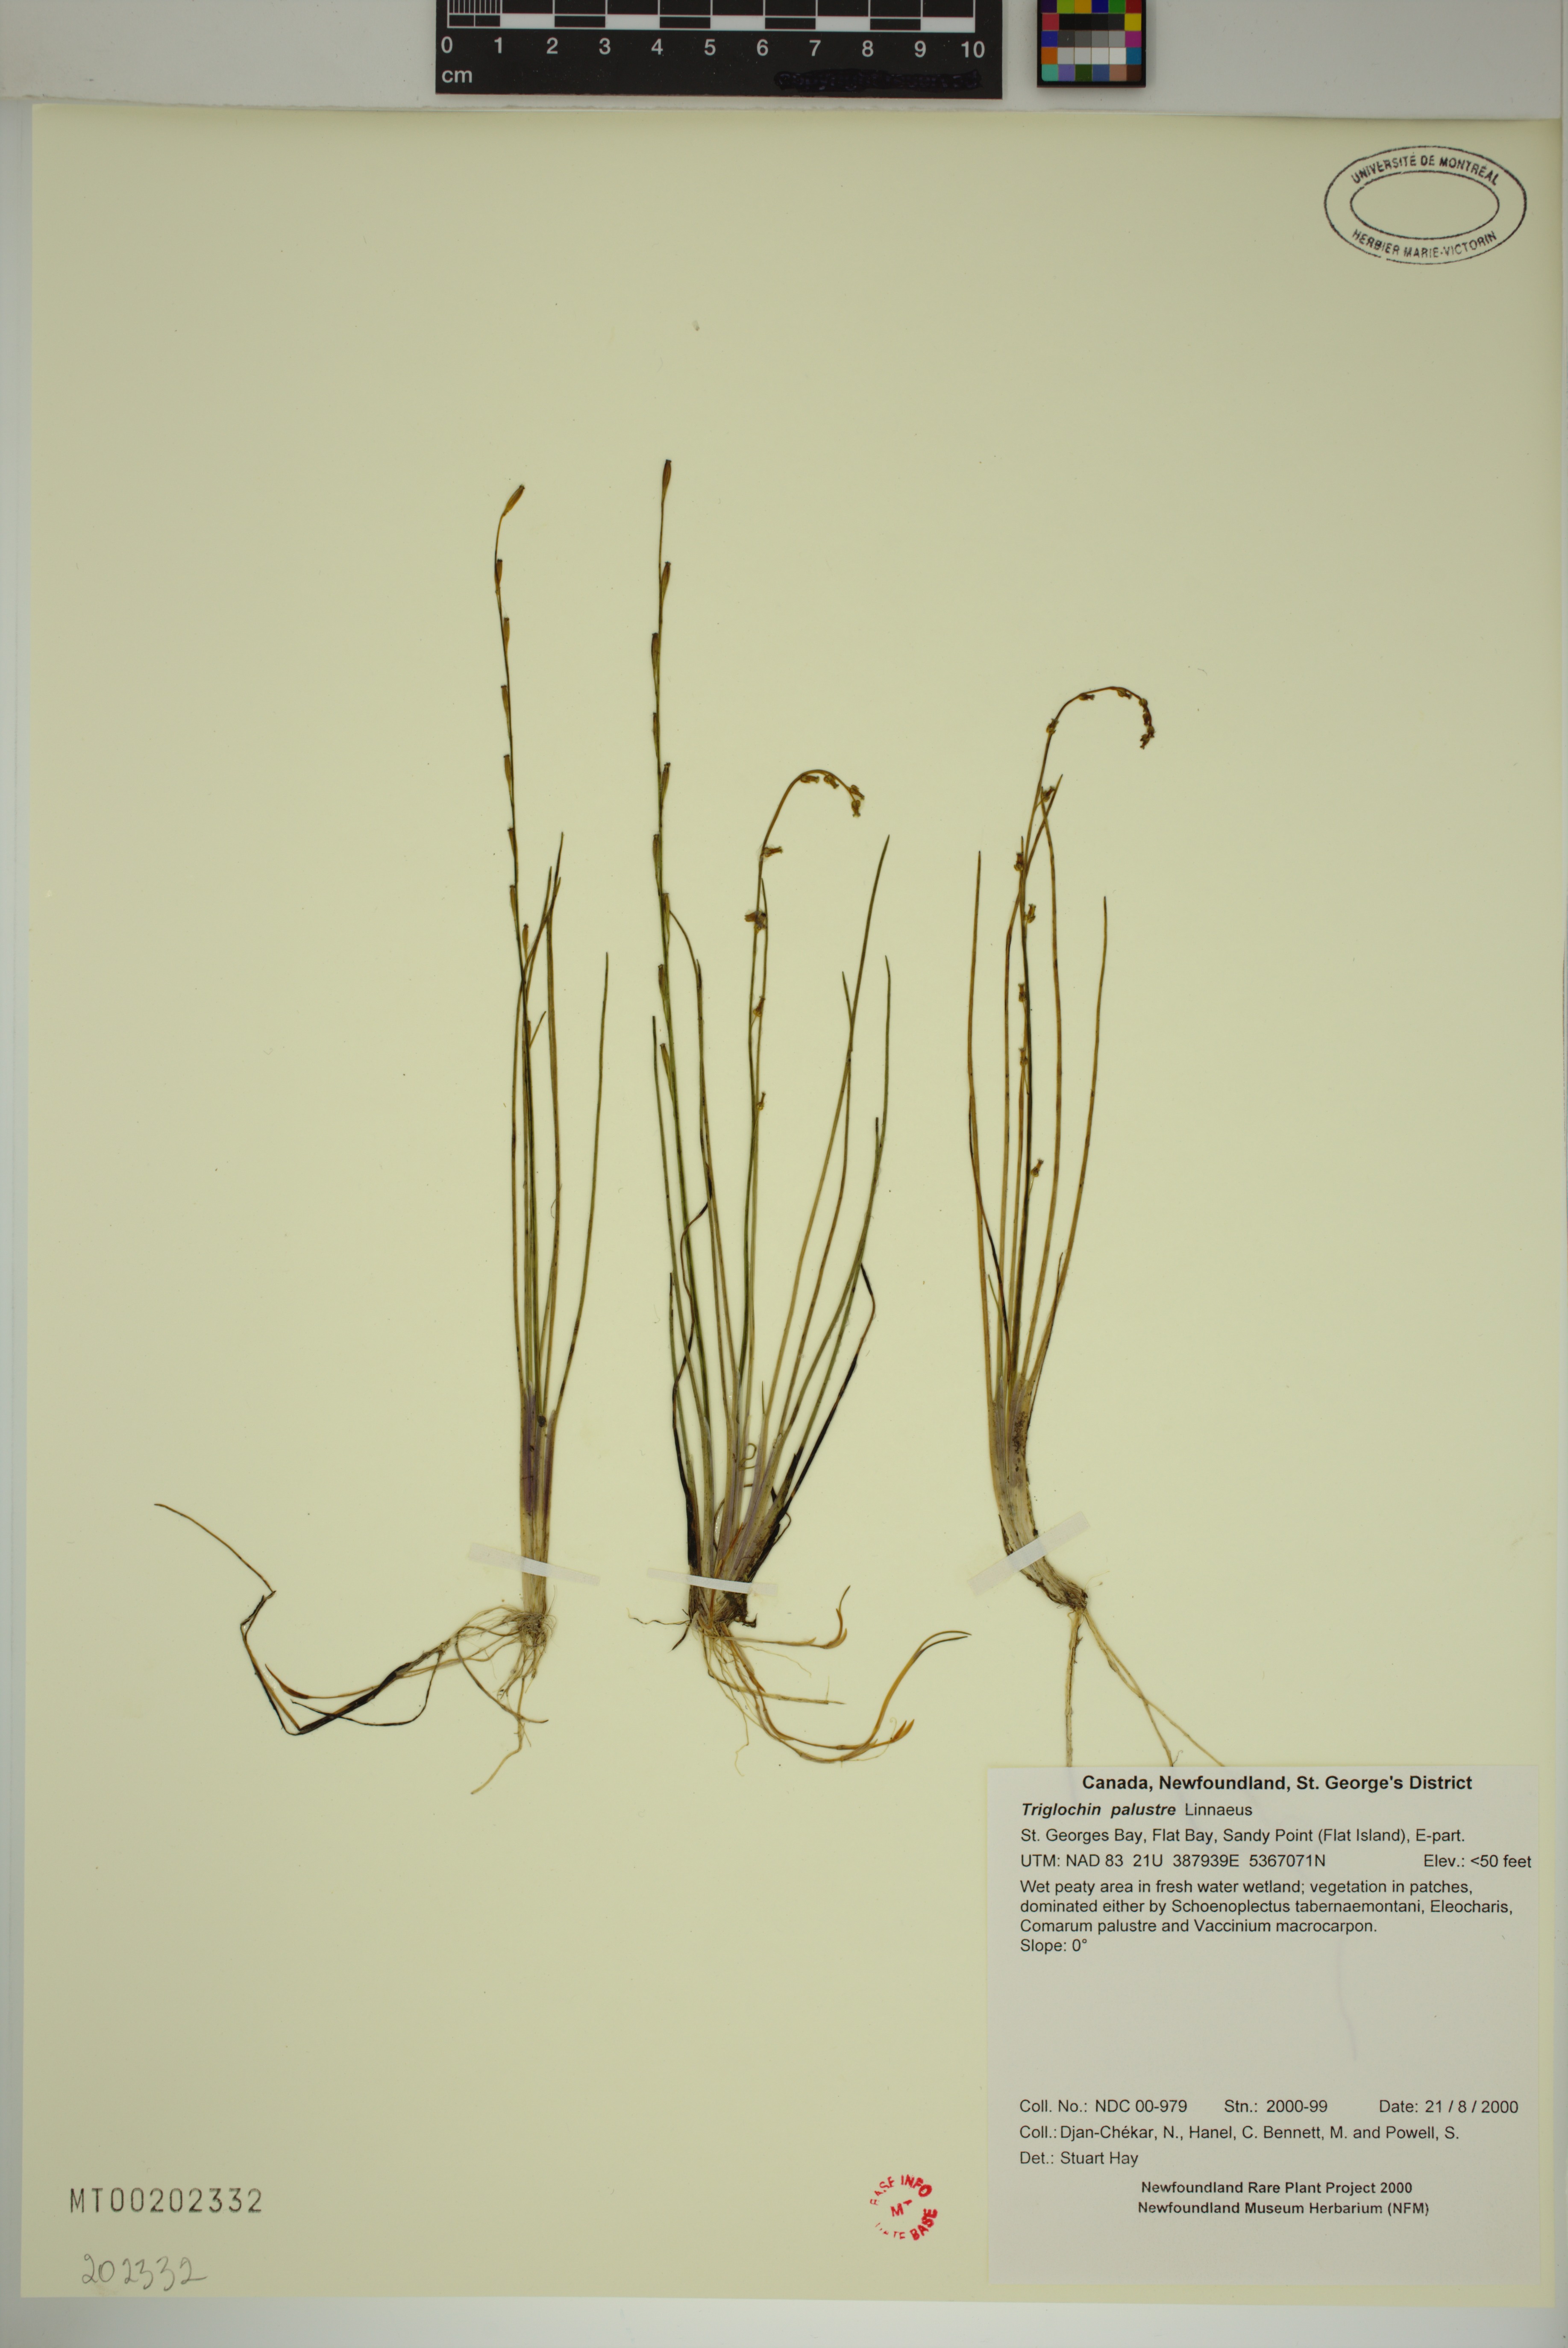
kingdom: Plantae
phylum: Tracheophyta
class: Liliopsida
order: Alismatales
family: Juncaginaceae
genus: Triglochin
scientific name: Triglochin palustris
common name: Marsh arrowgrass
